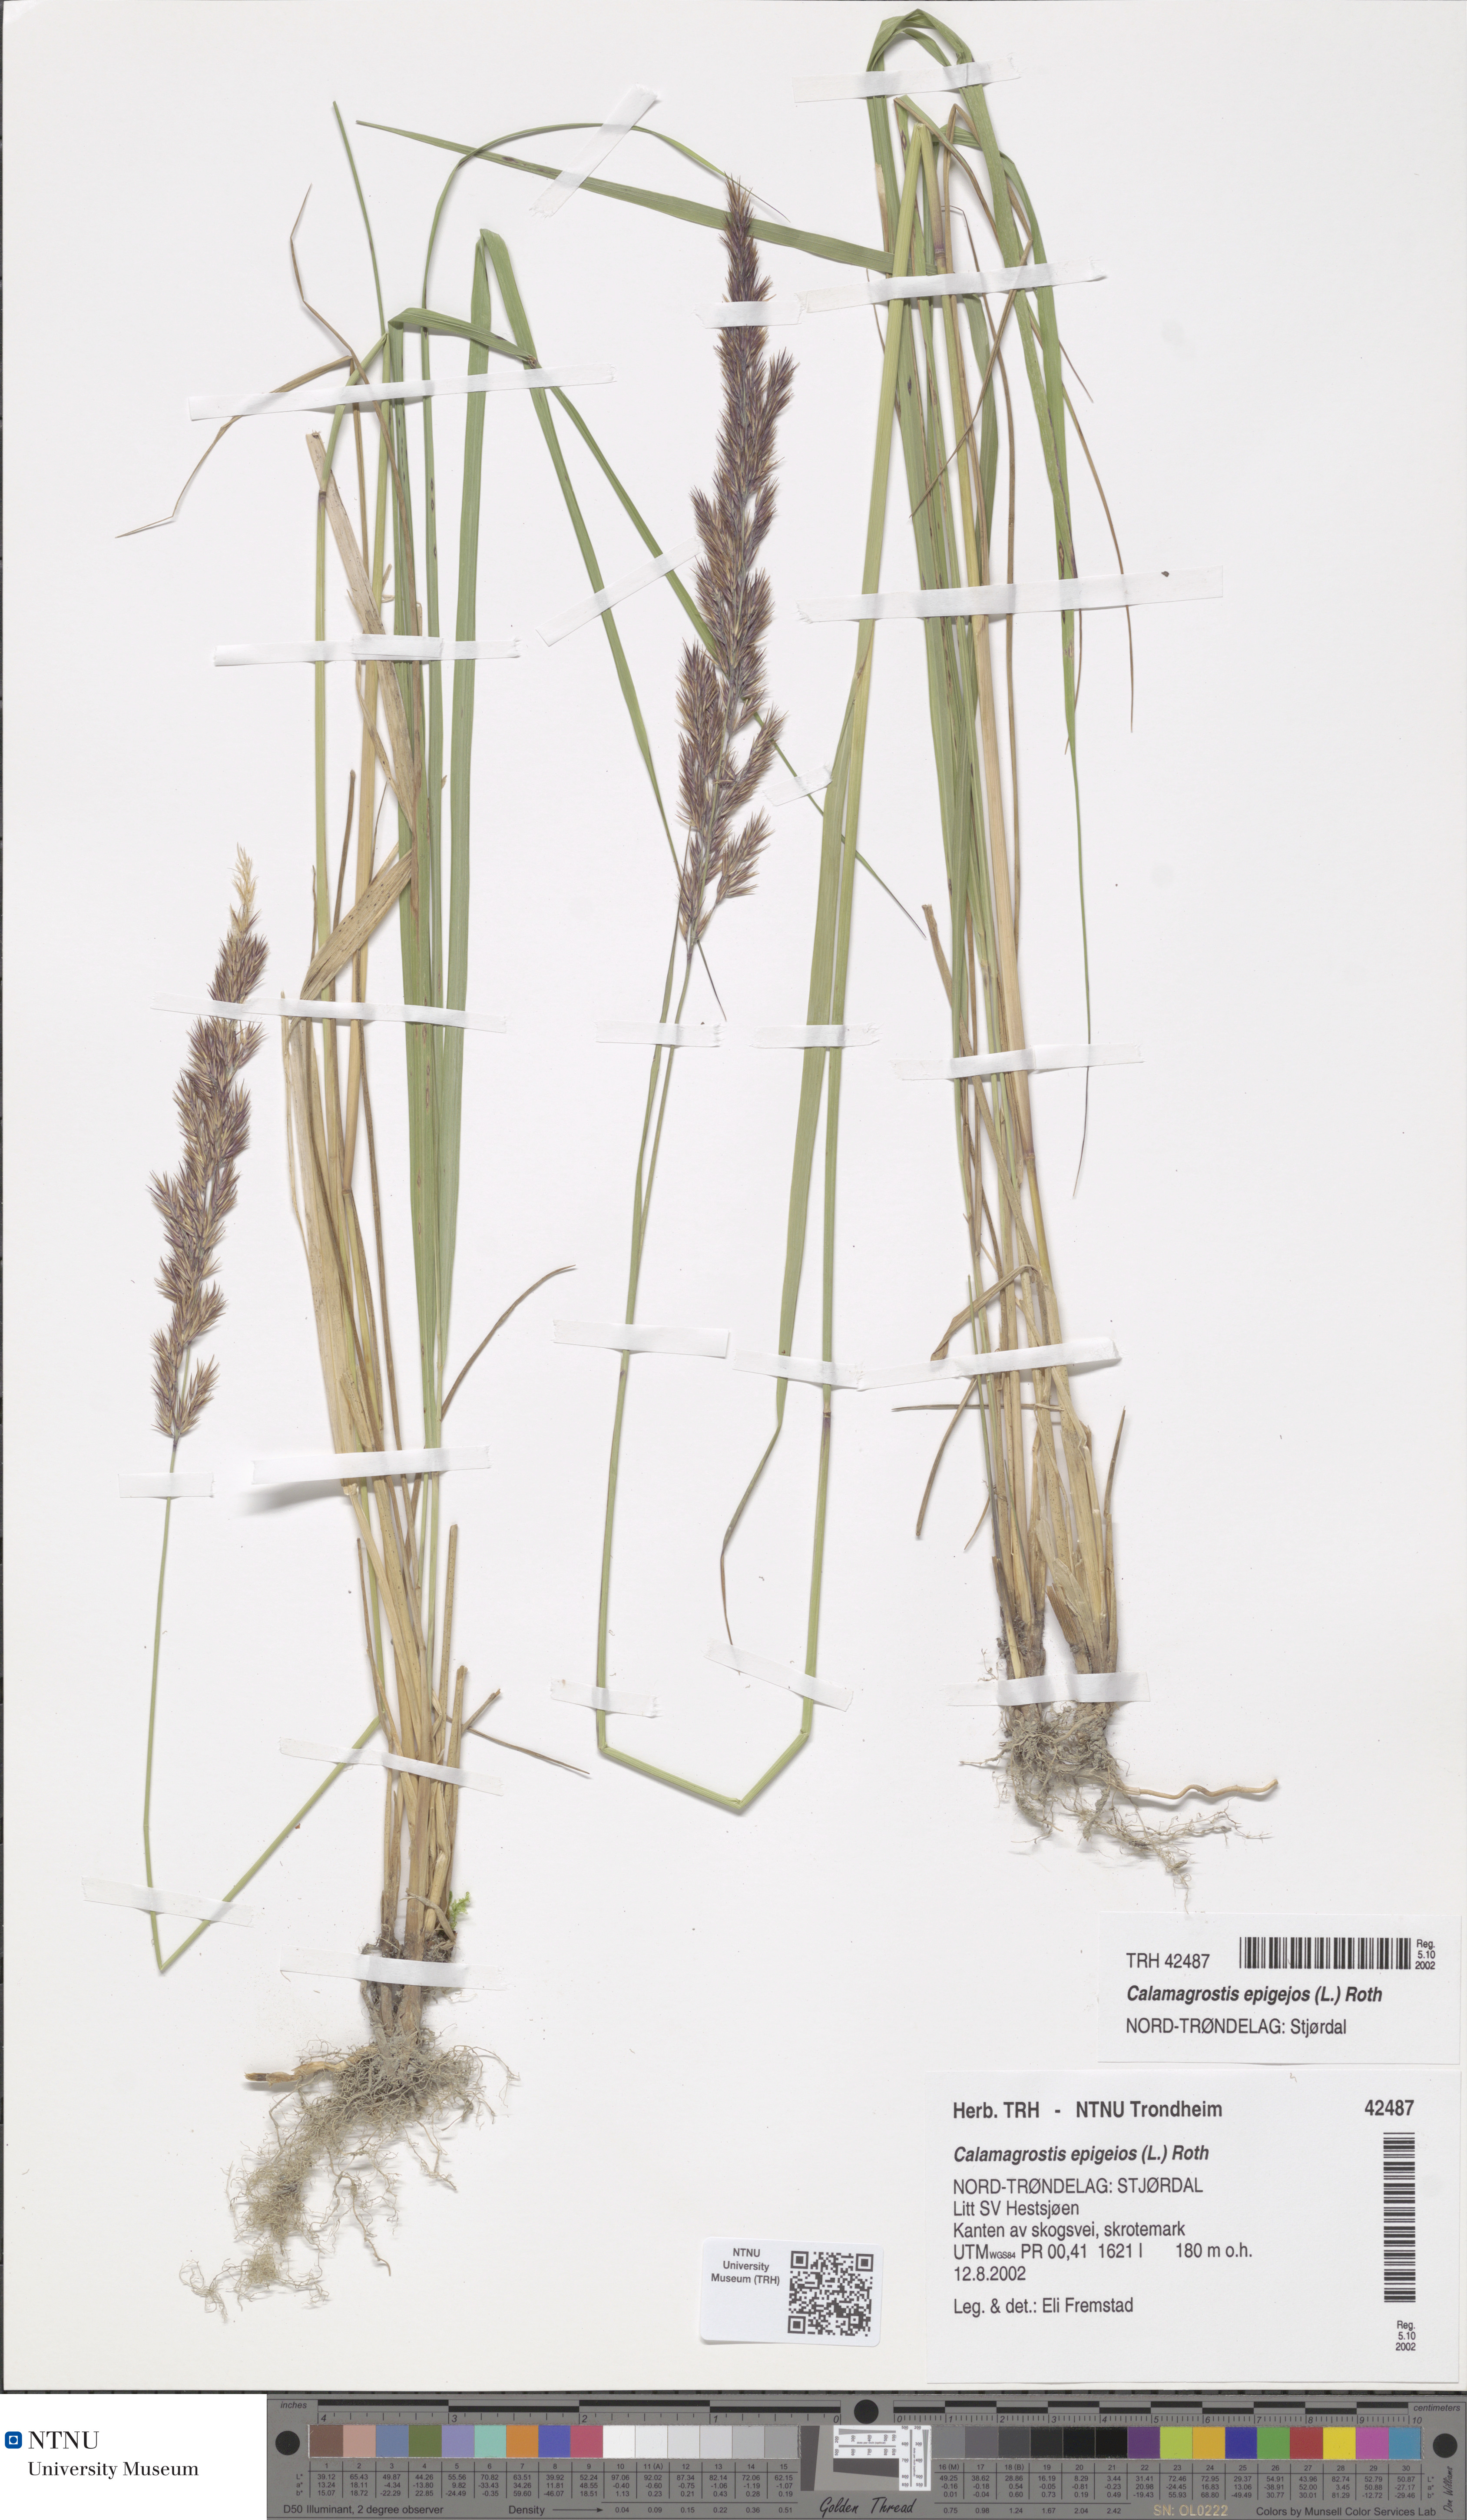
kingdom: Plantae
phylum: Tracheophyta
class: Liliopsida
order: Poales
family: Poaceae
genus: Calamagrostis
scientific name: Calamagrostis epigejos
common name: Wood small-reed
